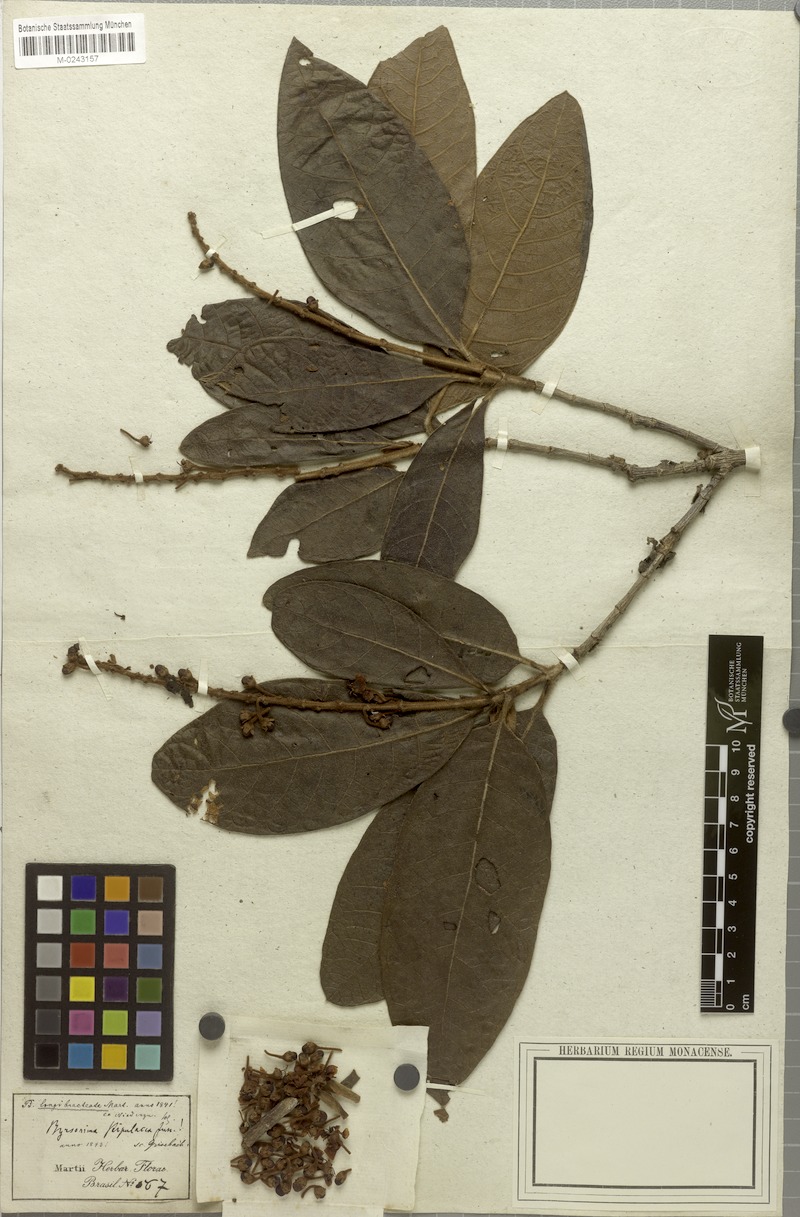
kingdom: Plantae
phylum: Tracheophyta
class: Magnoliopsida
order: Malpighiales
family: Malpighiaceae
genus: Byrsonima
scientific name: Byrsonima stipulacea
